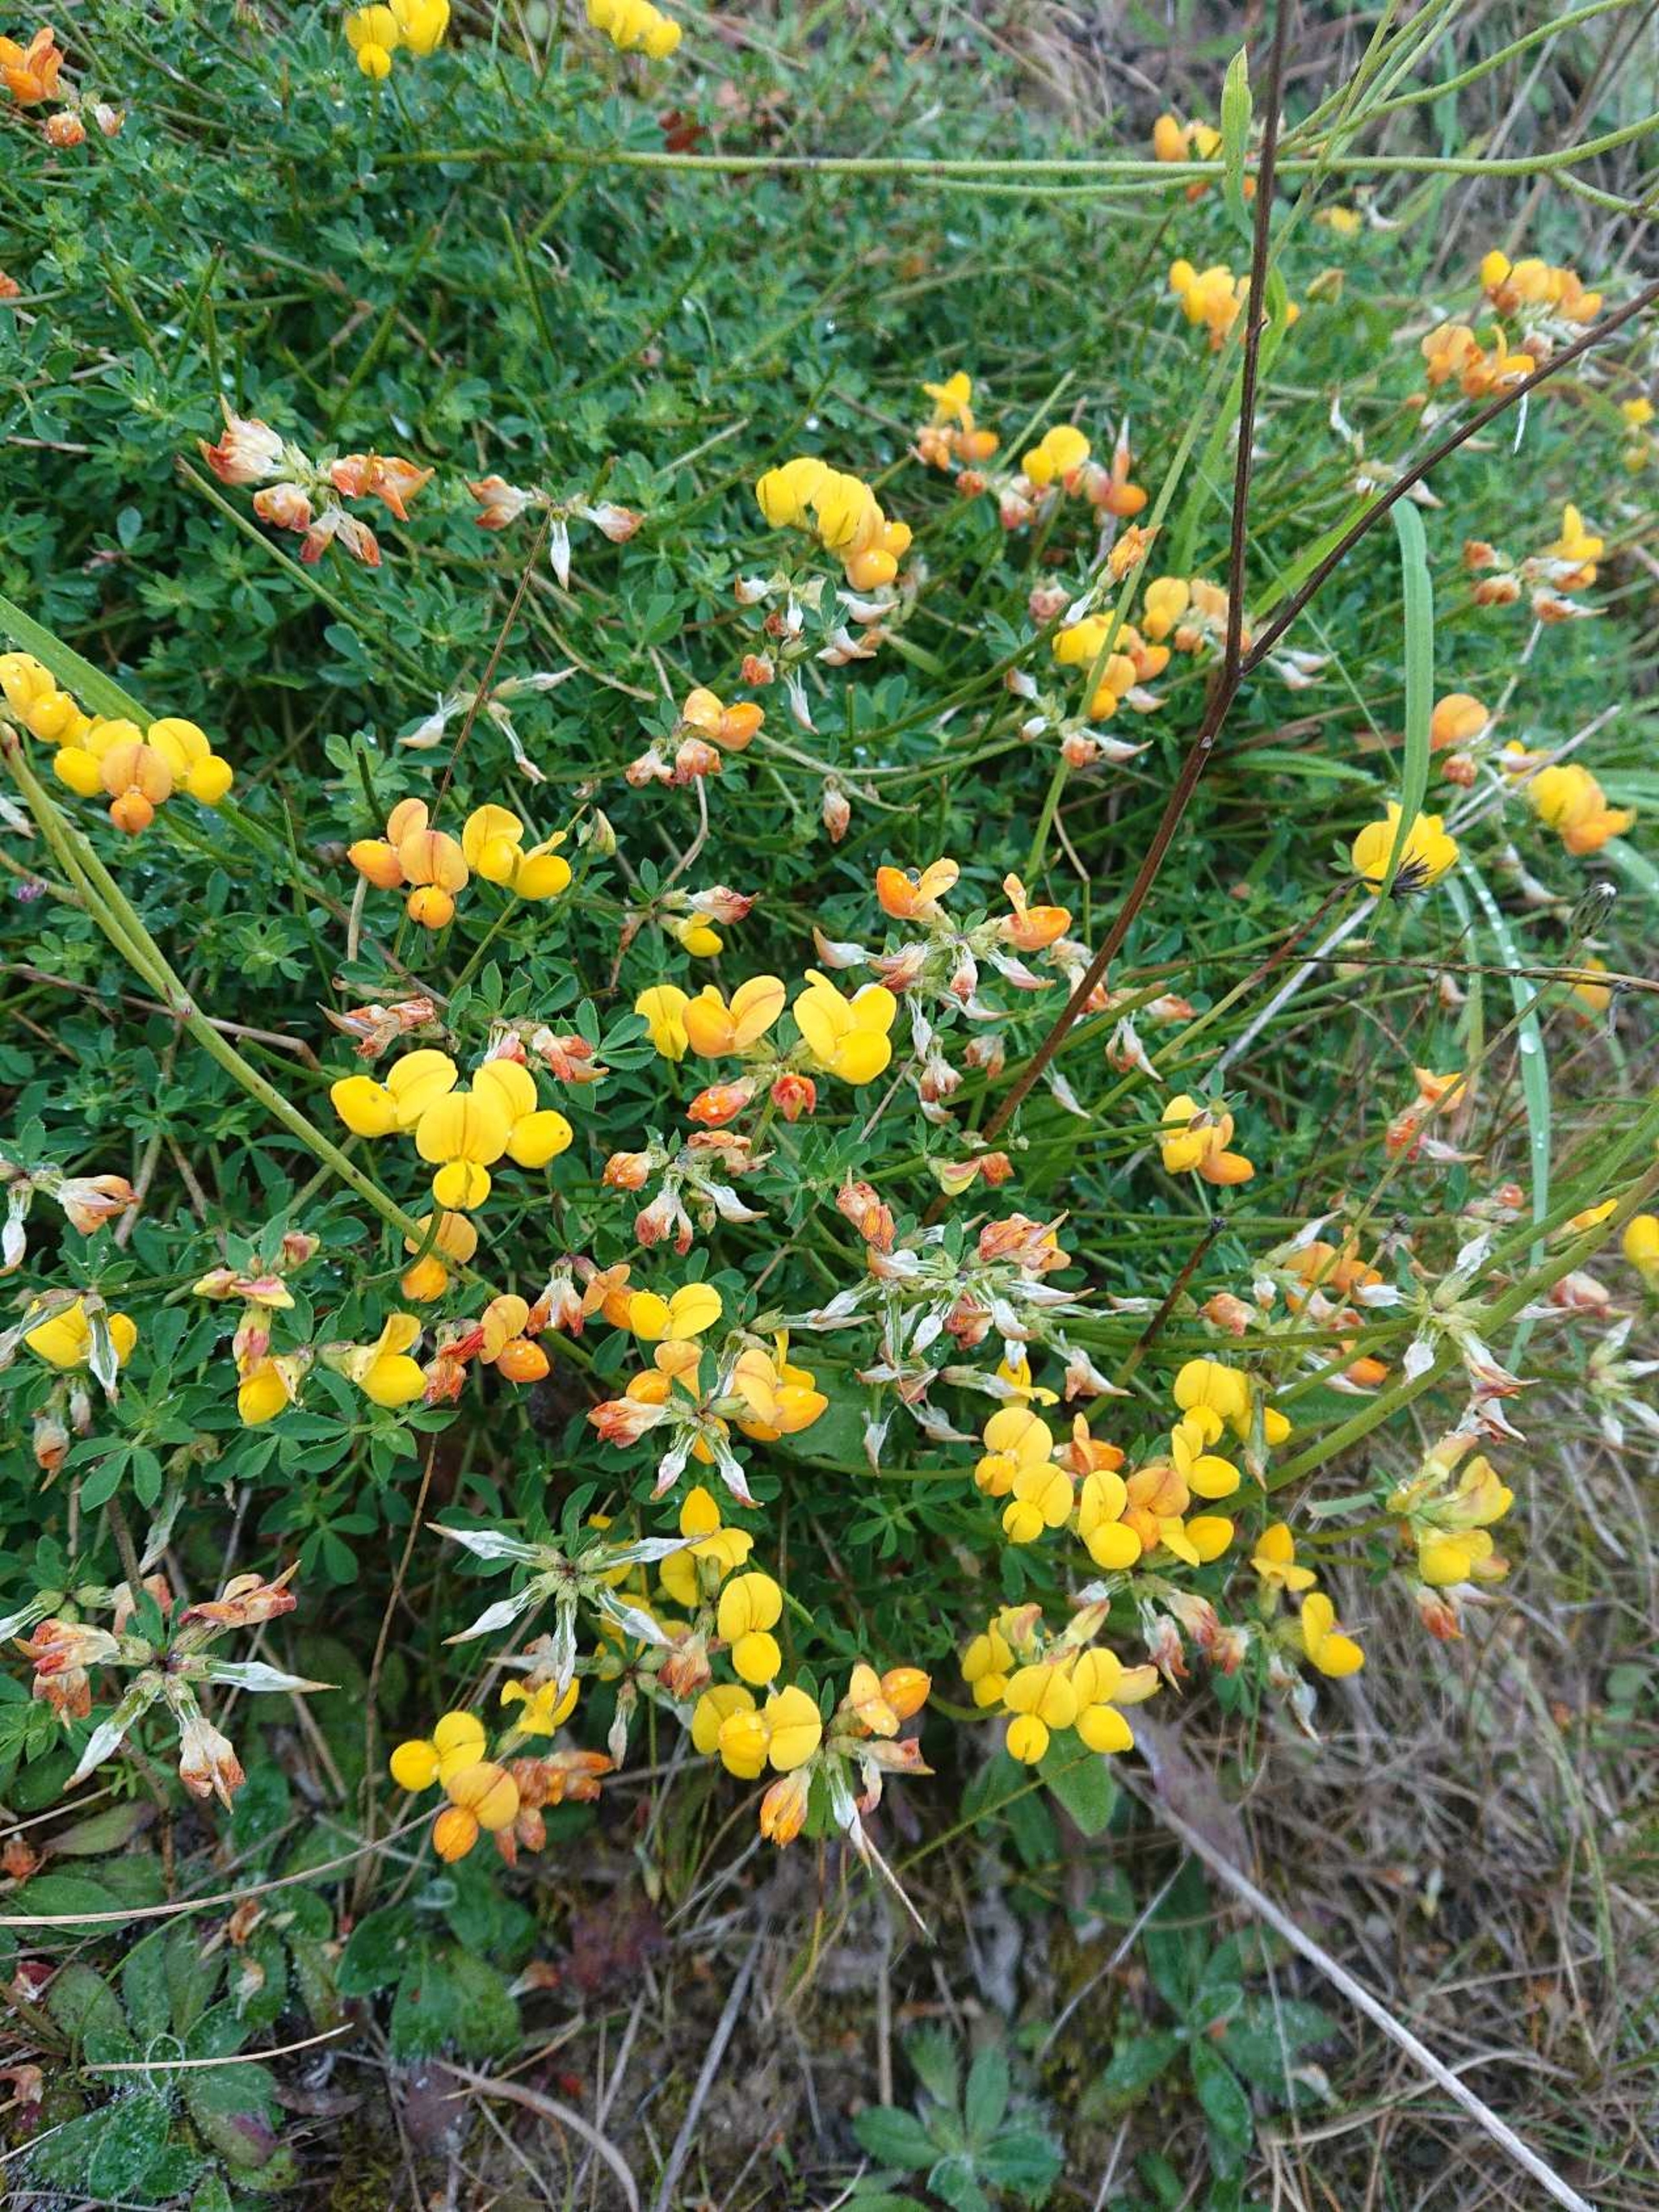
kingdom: Plantae
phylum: Tracheophyta
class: Magnoliopsida
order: Fabales
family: Fabaceae
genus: Lotus
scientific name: Lotus corniculatus
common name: Almindelig kællingetand
